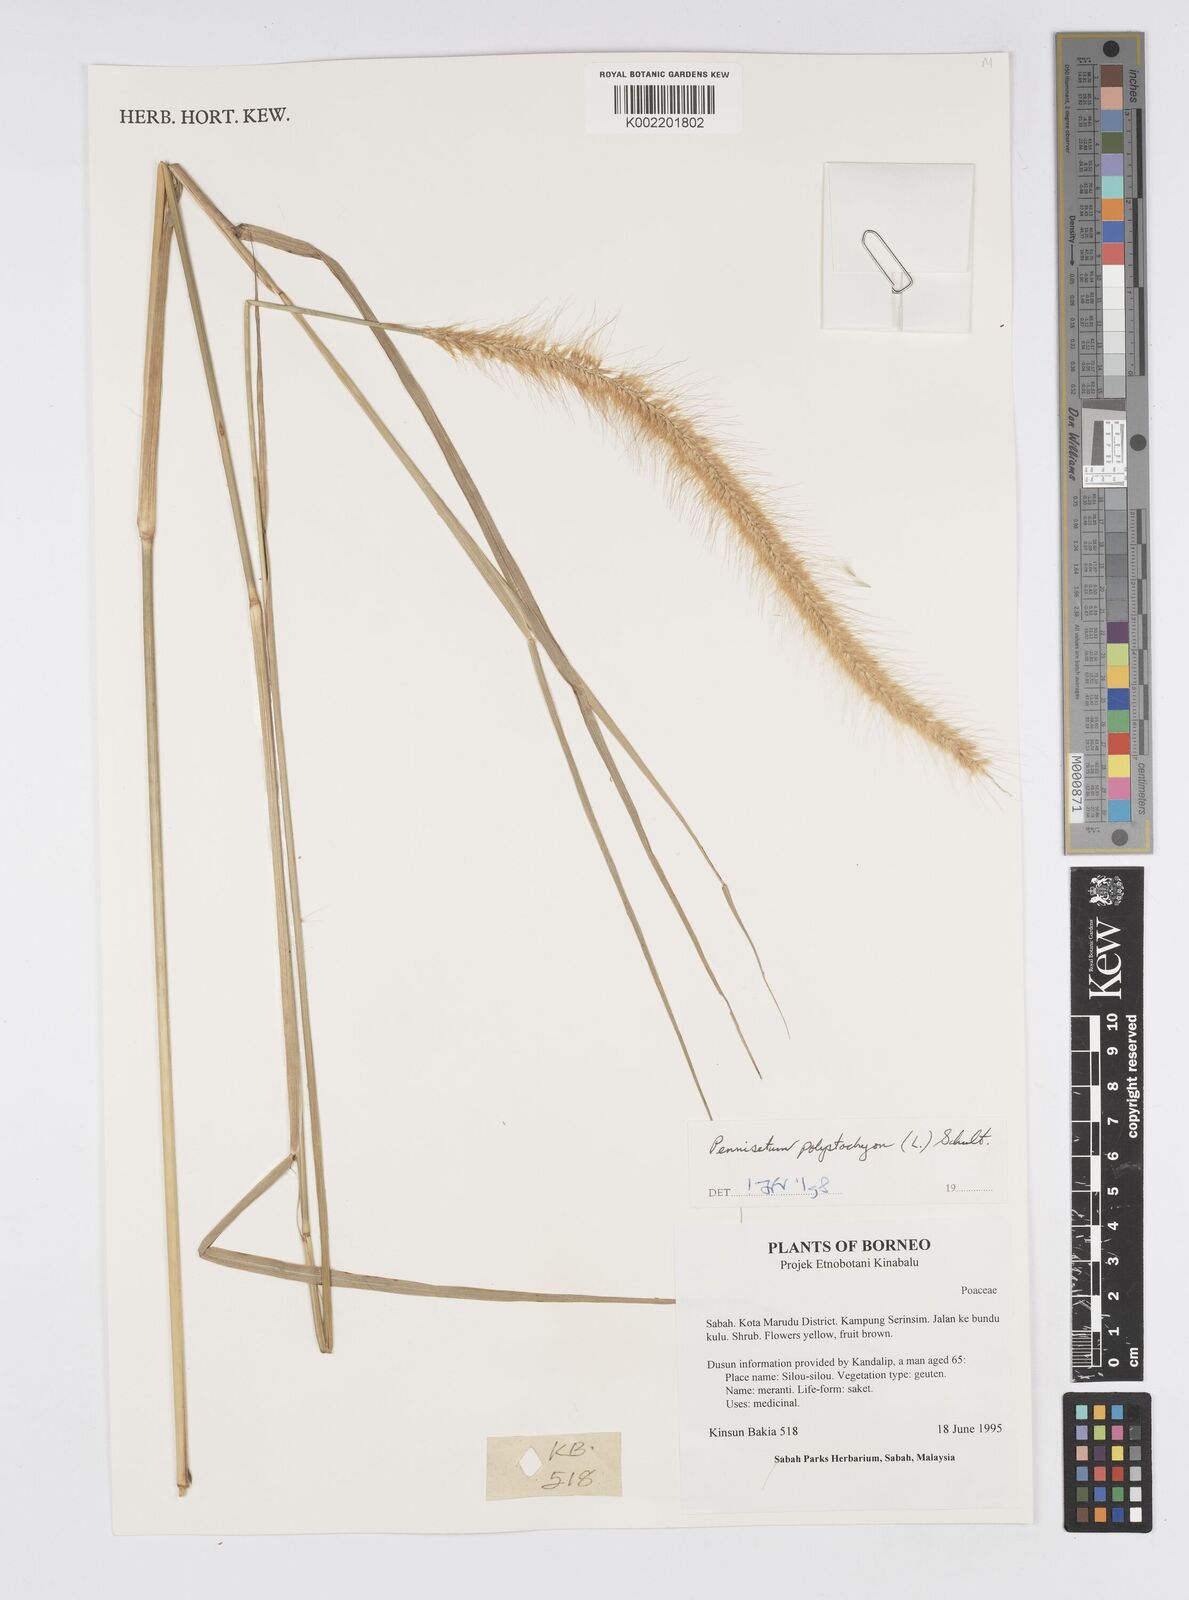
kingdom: Plantae
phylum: Tracheophyta
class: Liliopsida
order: Poales
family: Poaceae
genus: Setaria
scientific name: Setaria parviflora
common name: Knotroot bristle-grass
